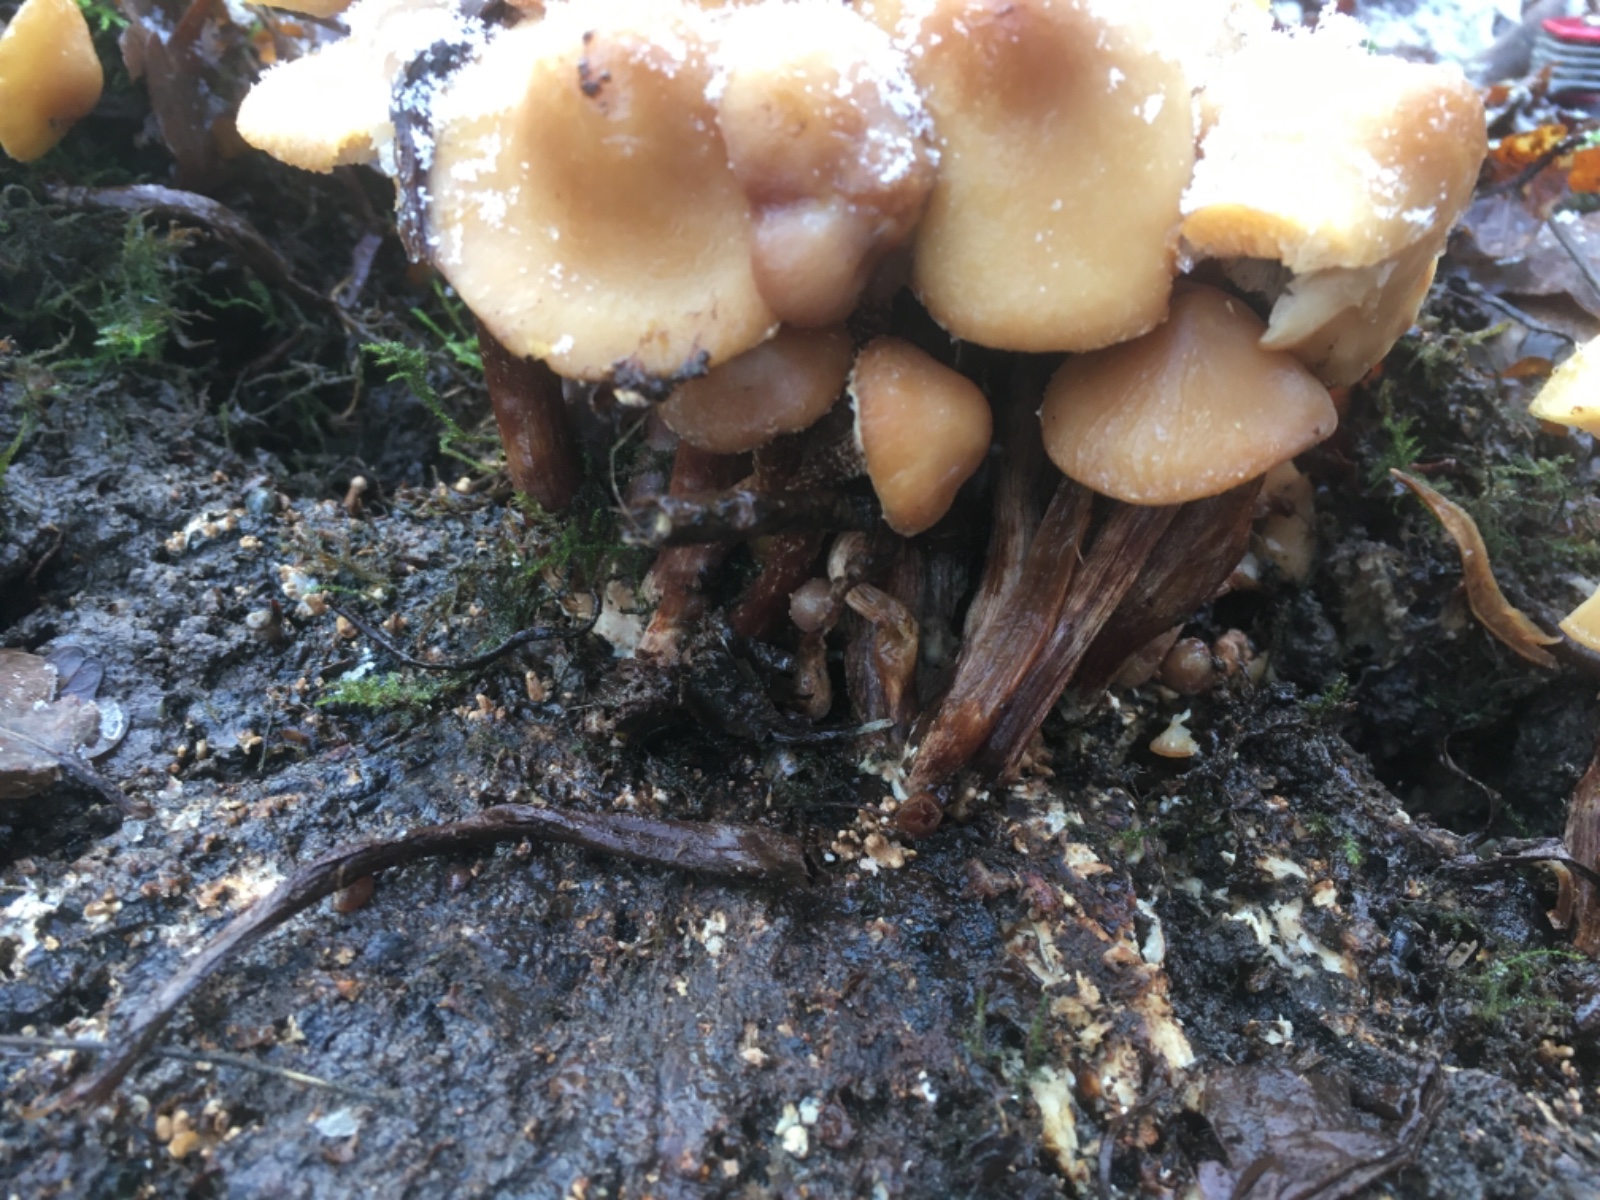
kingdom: Fungi
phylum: Basidiomycota
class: Agaricomycetes
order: Agaricales
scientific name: Agaricales
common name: champignonordenen
